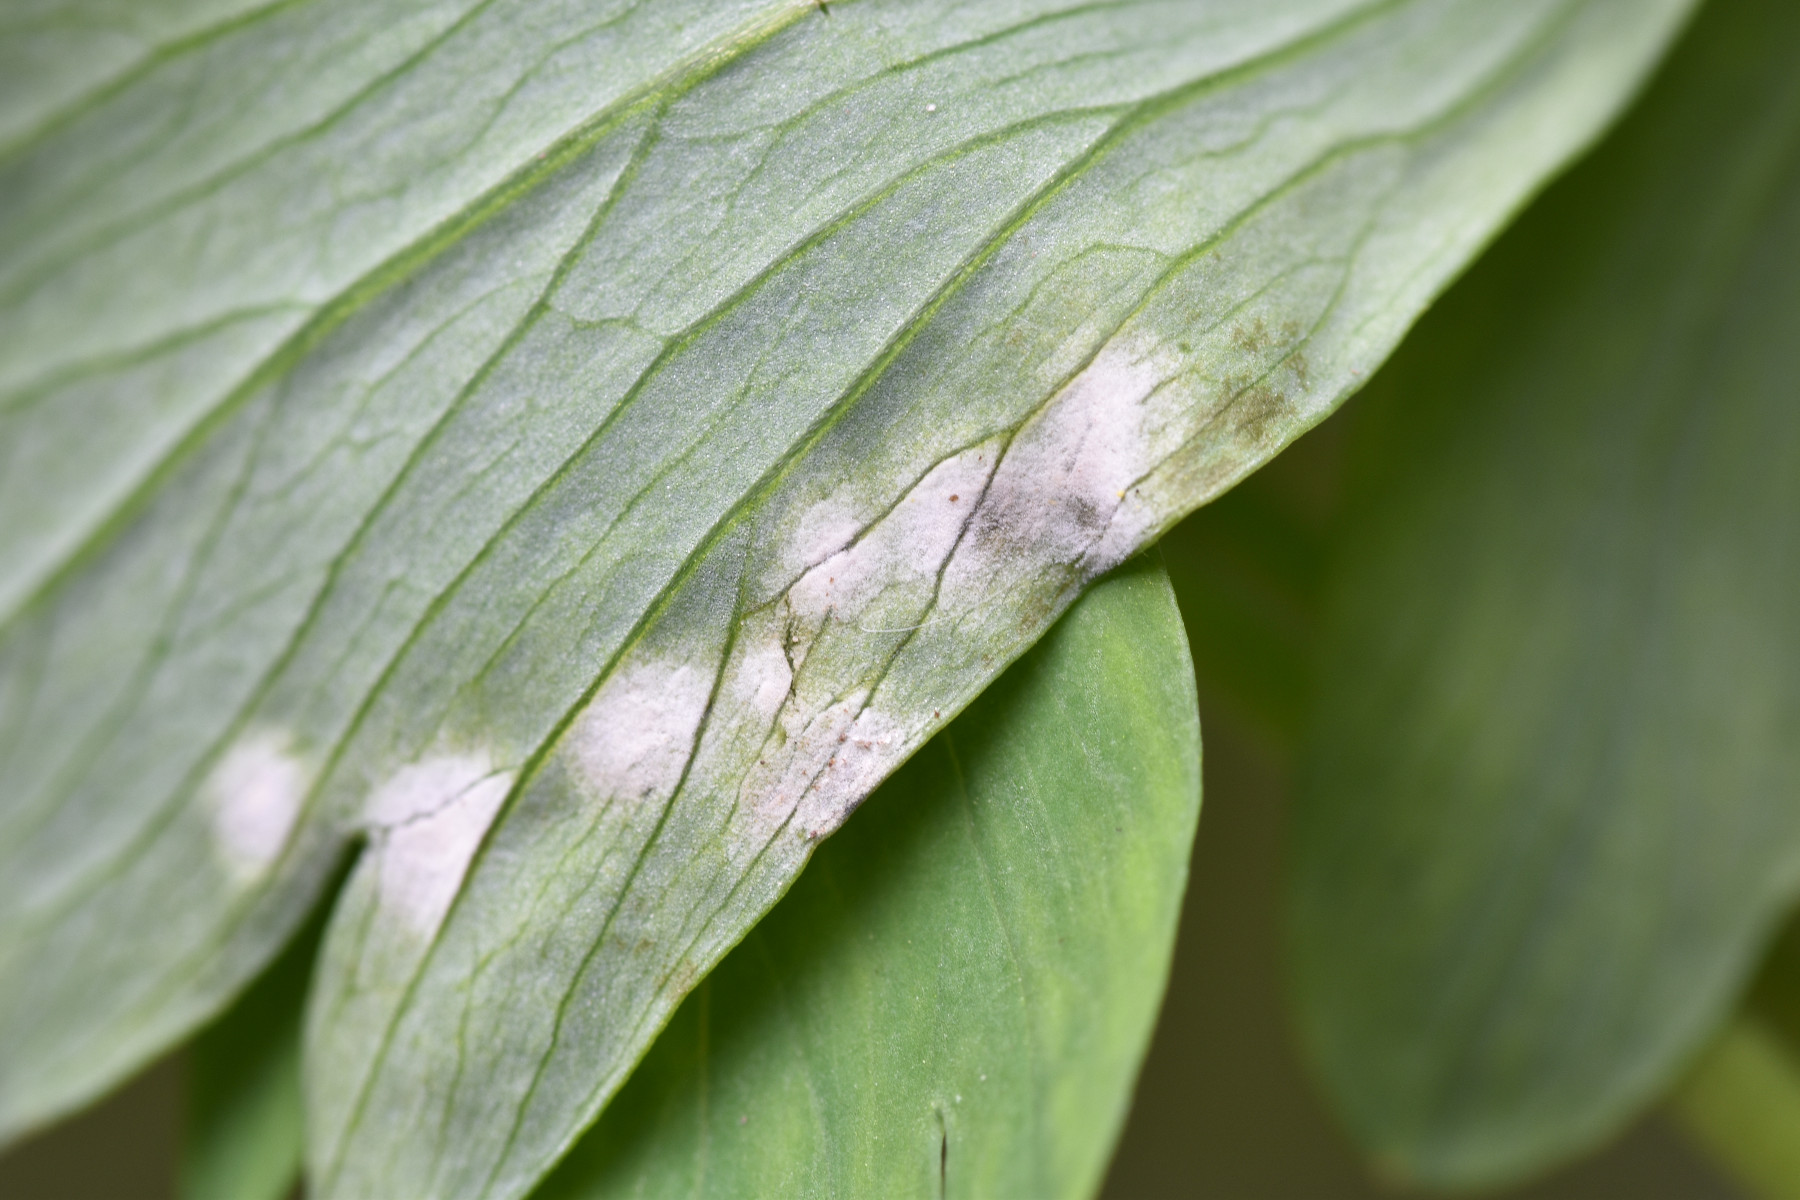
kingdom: Chromista
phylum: Oomycota
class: Peronosporea
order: Peronosporales
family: Peronosporaceae
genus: Peronospora
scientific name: Peronospora bulbocapni
